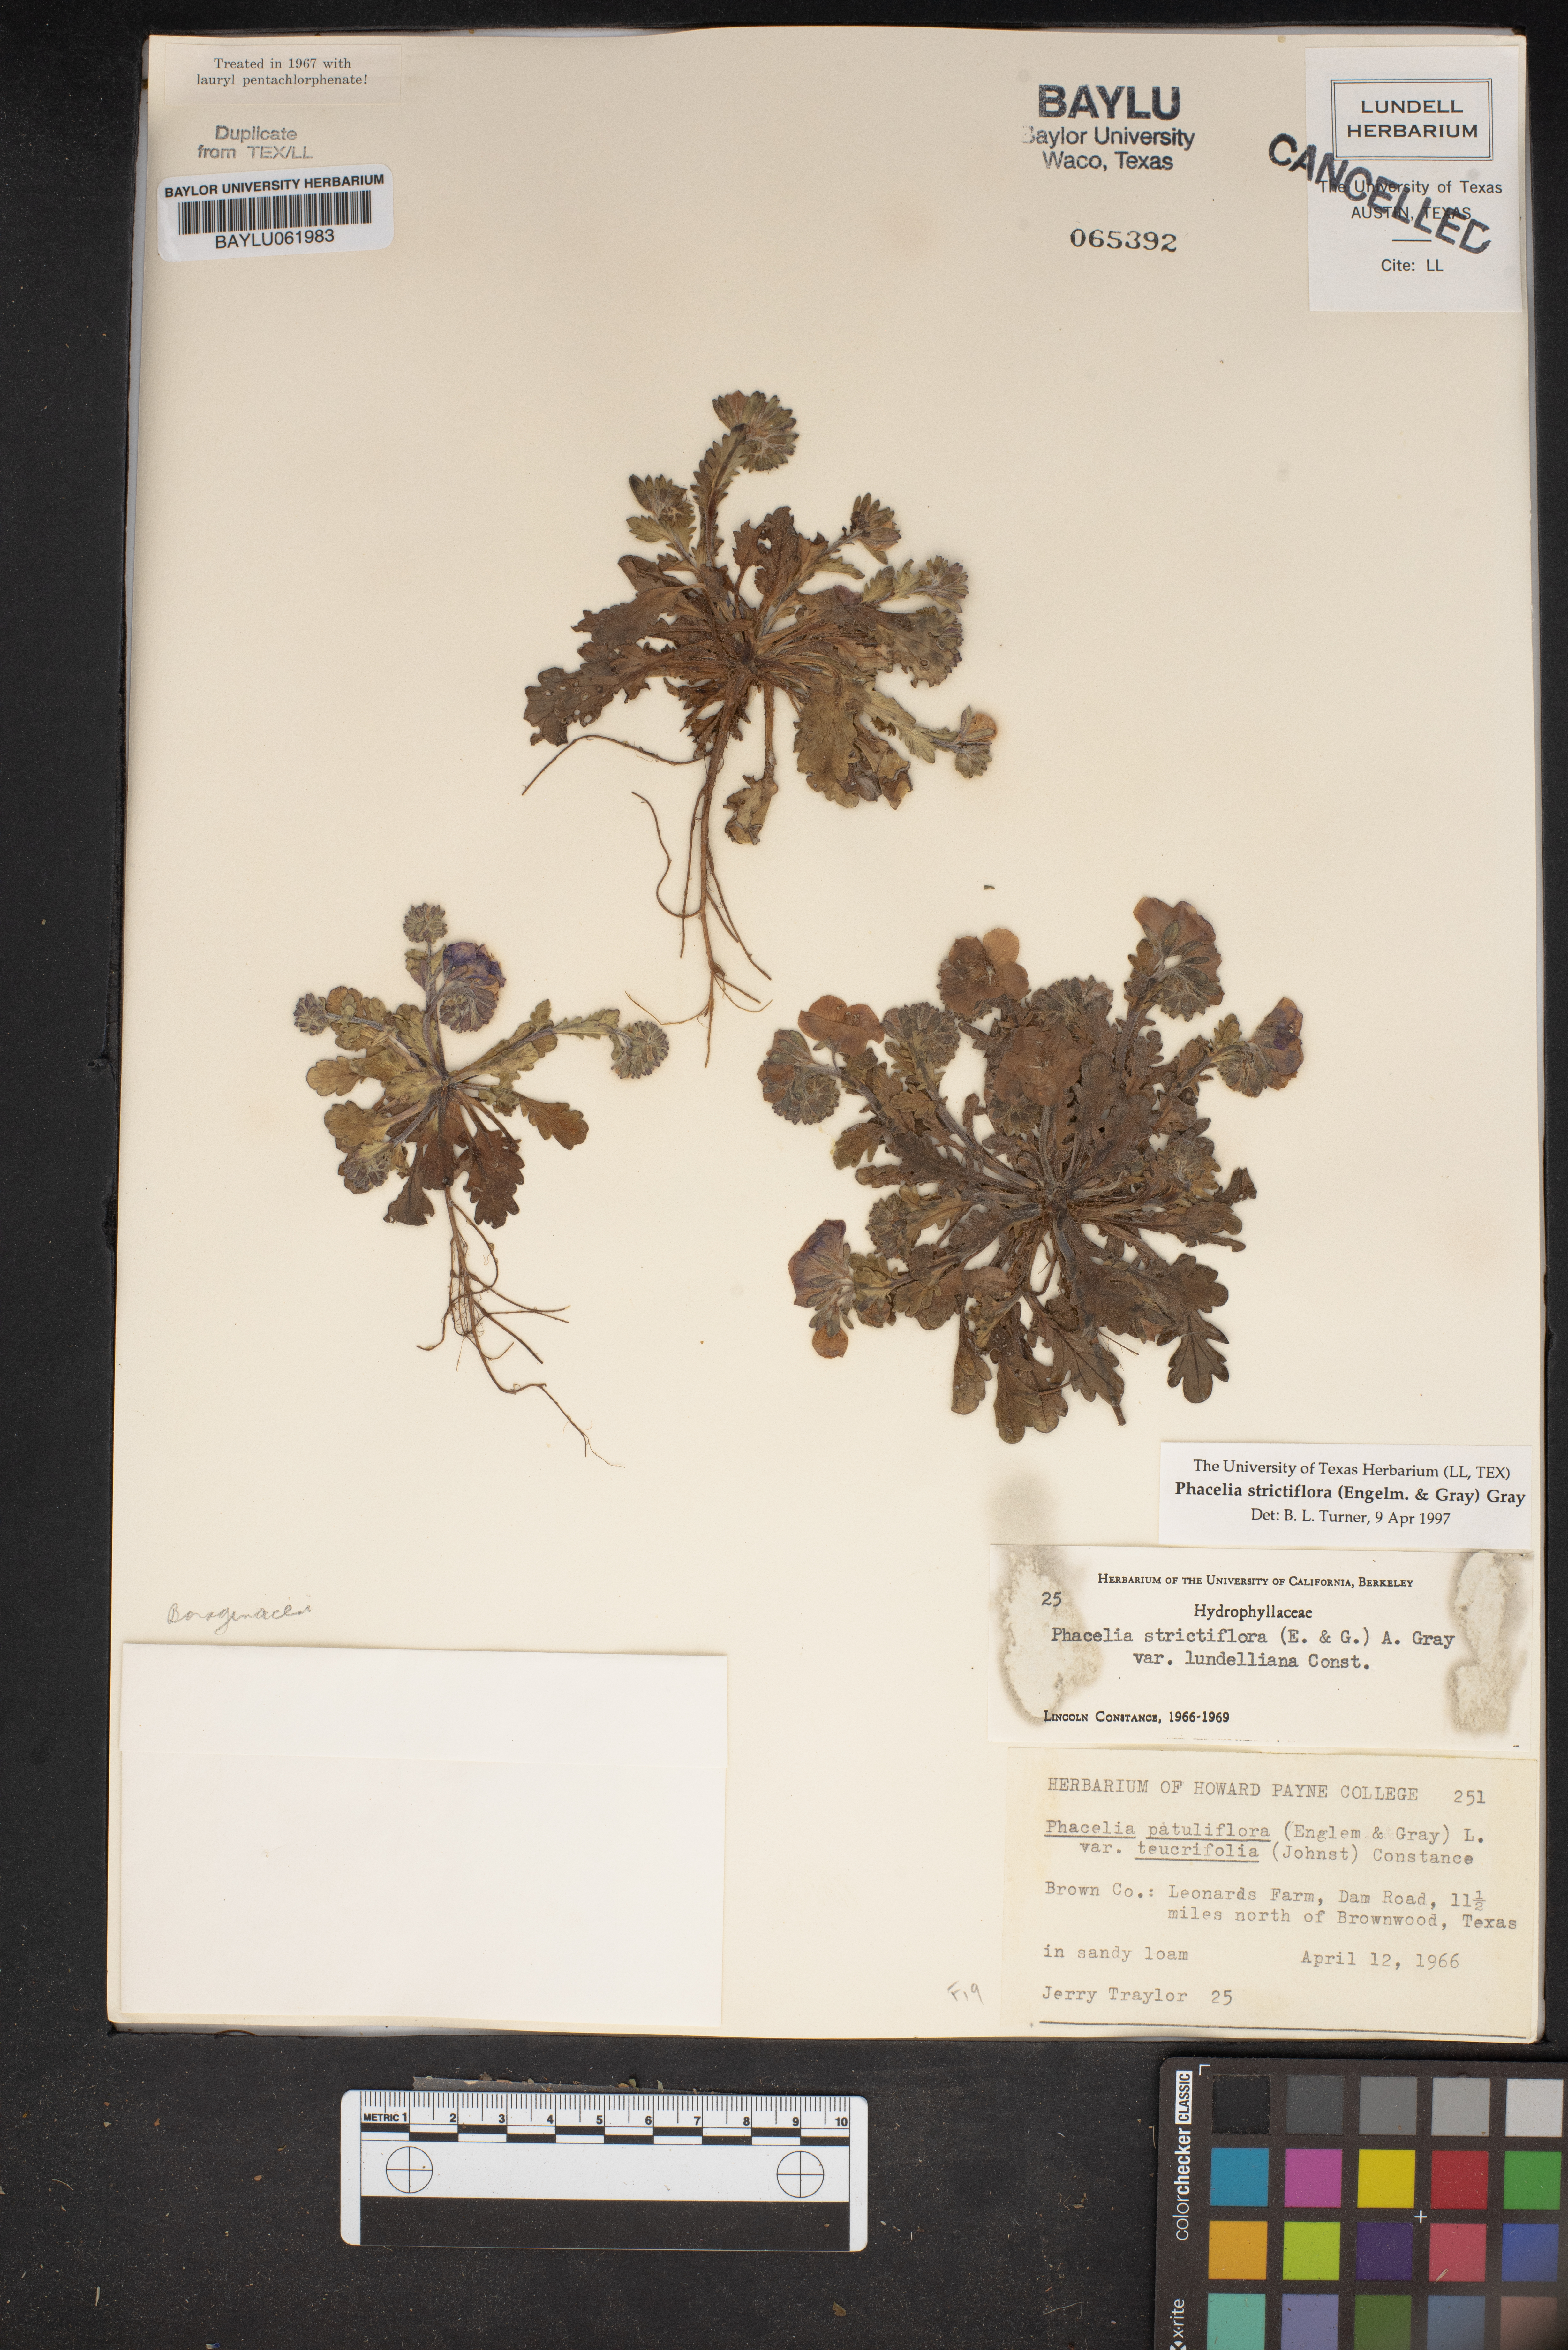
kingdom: Plantae
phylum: Tracheophyta
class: Magnoliopsida
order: Boraginales
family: Hydrophyllaceae
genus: Phacelia
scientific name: Phacelia patuliflora
